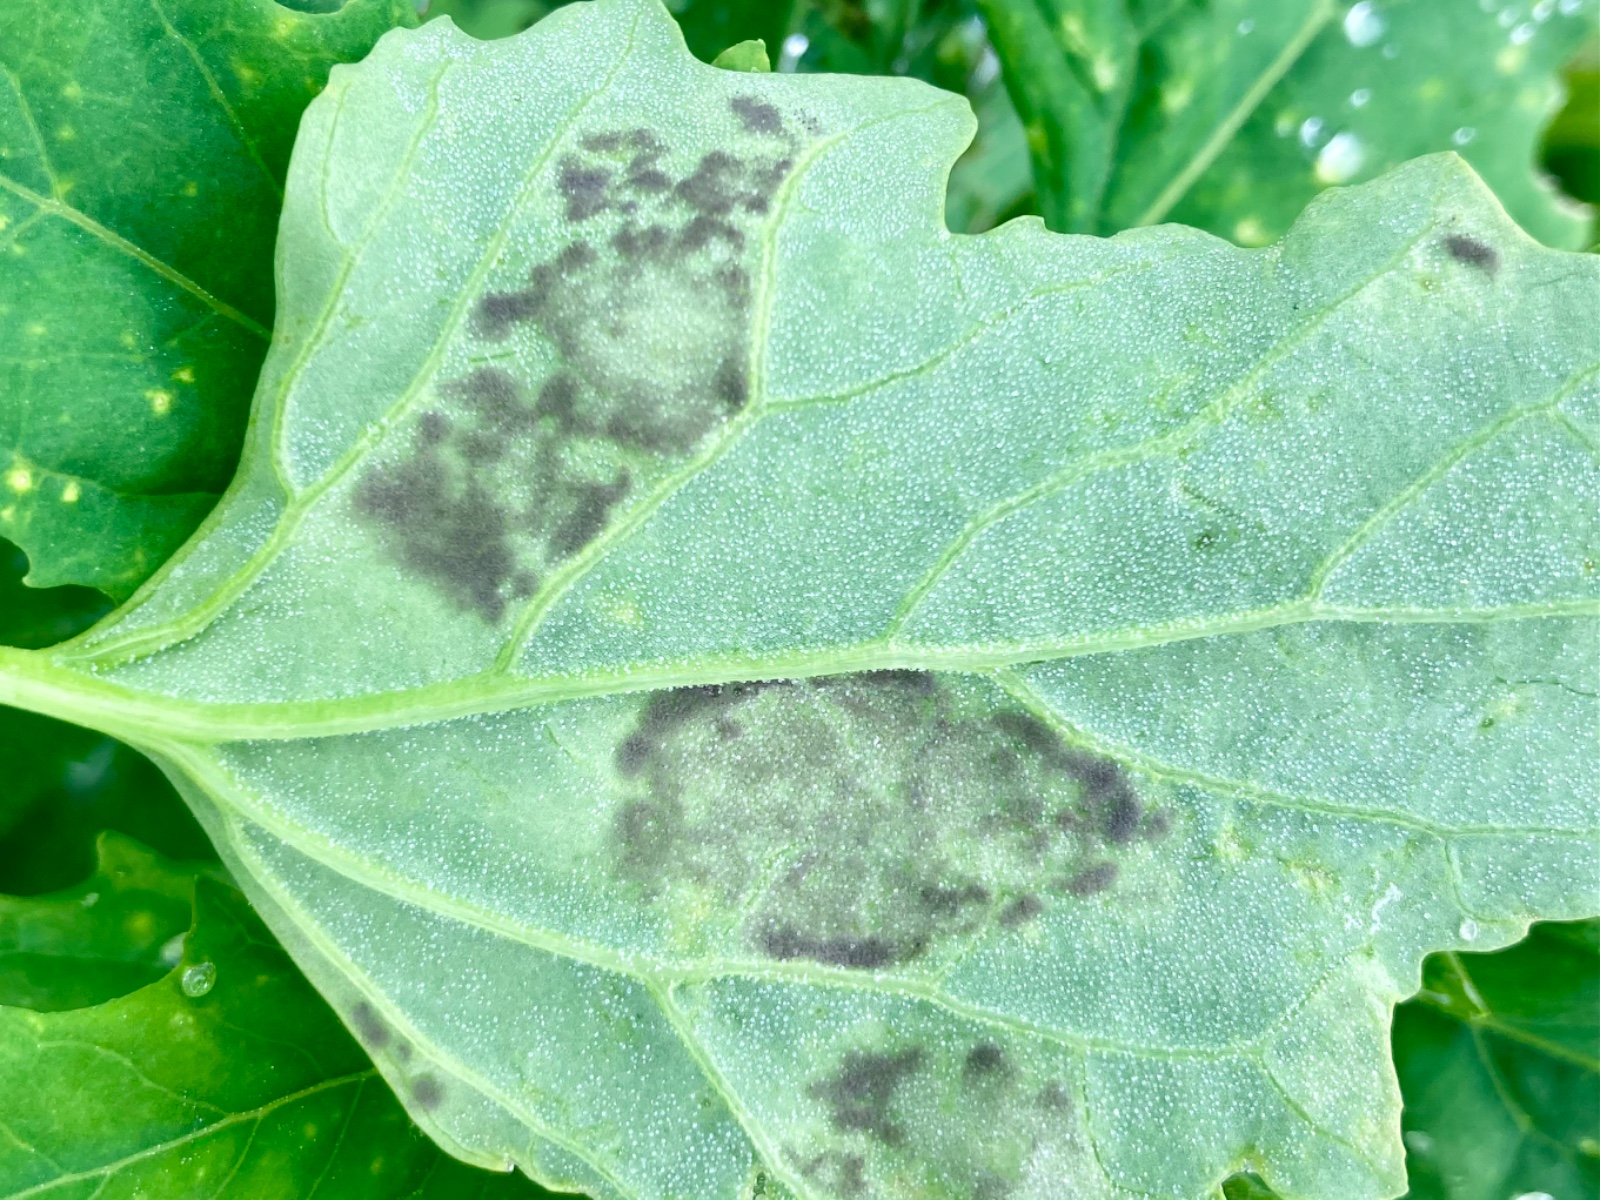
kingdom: Chromista
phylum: Oomycota
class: Peronosporea
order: Peronosporales
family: Peronosporaceae
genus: Peronospora
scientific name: Peronospora farinosa
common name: Beet downy mildew
